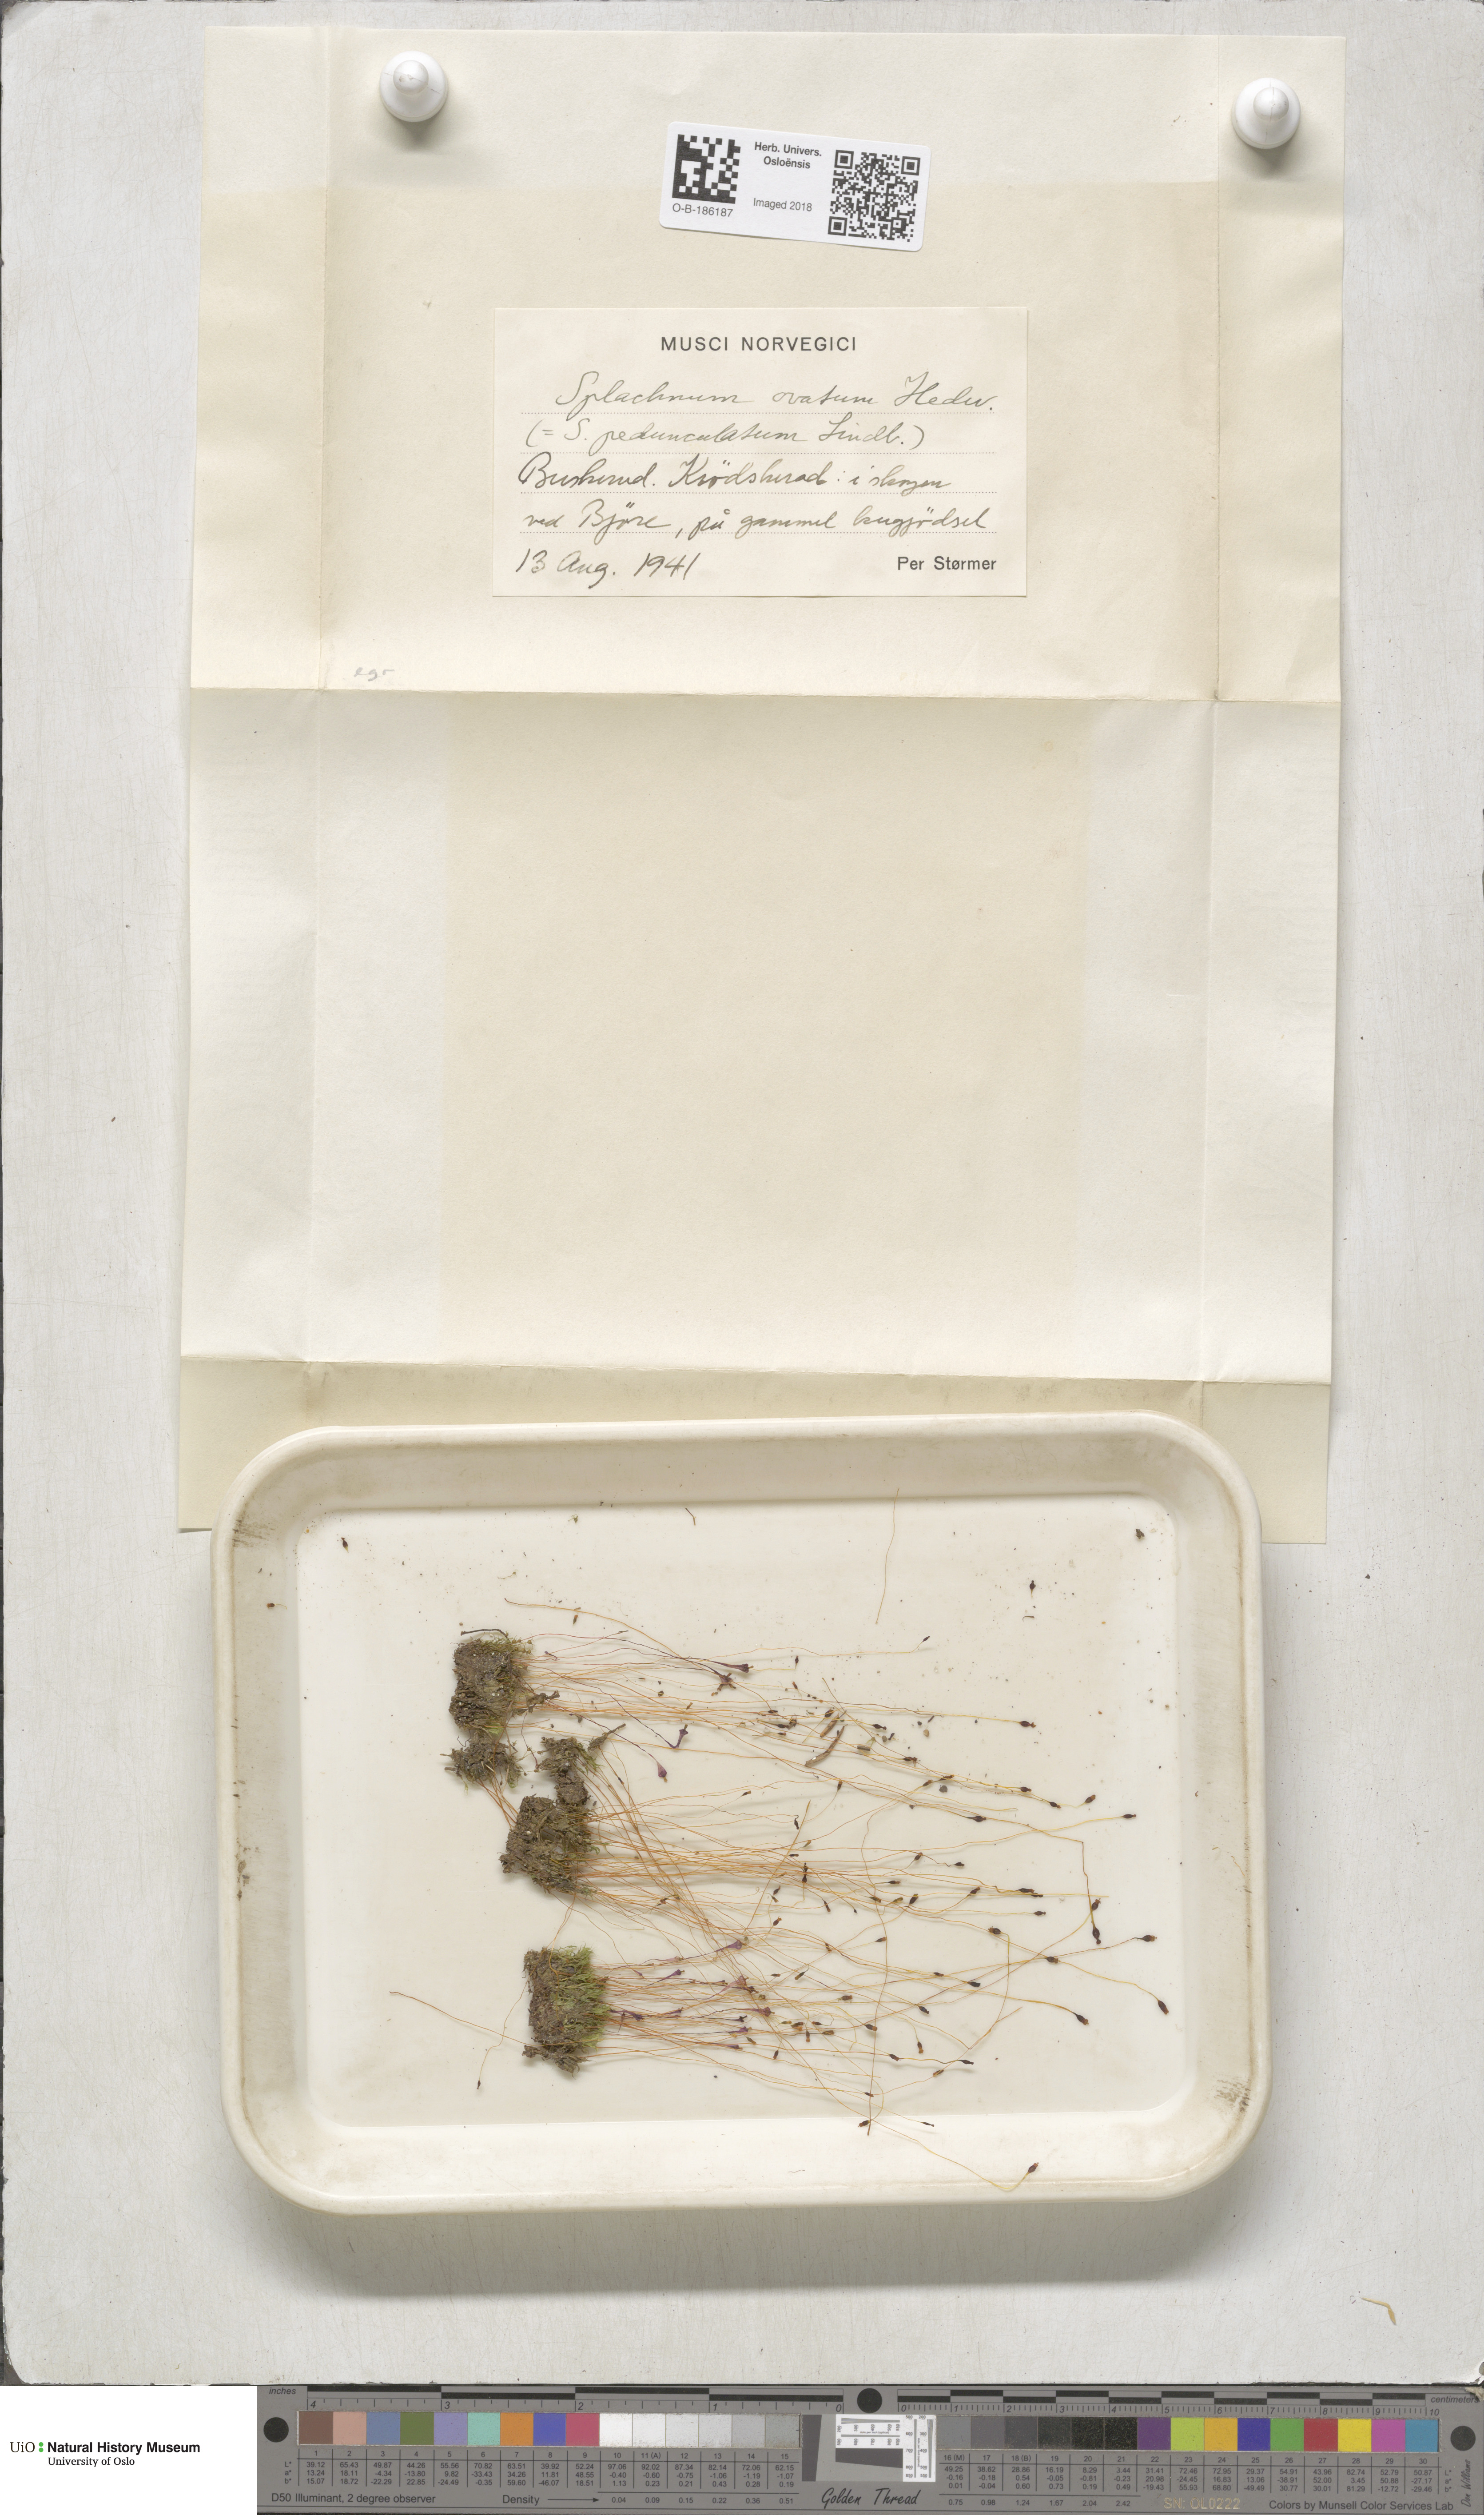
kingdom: Plantae
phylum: Bryophyta
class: Bryopsida
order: Splachnales
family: Splachnaceae
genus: Splachnum
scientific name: Splachnum sphaericum
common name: Round-fruited dung moss
